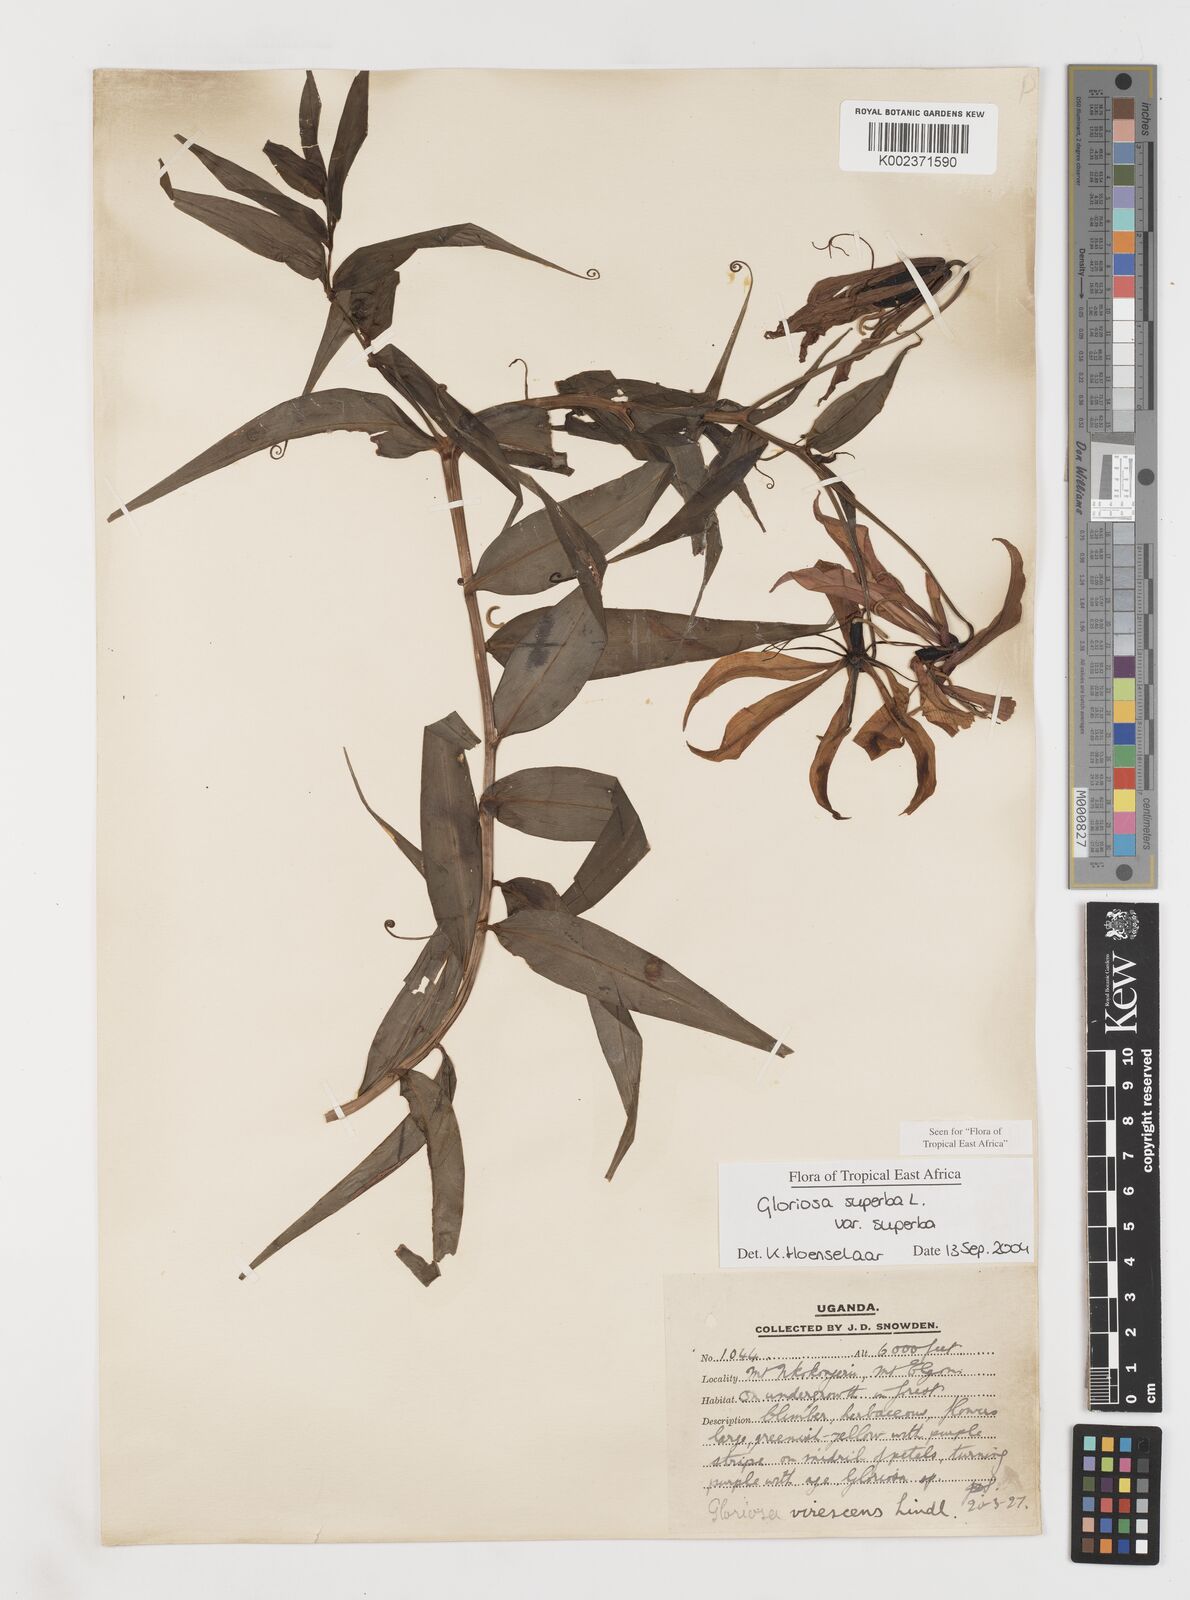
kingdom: Plantae
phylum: Tracheophyta
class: Liliopsida
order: Liliales
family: Colchicaceae
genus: Gloriosa
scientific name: Gloriosa simplex
